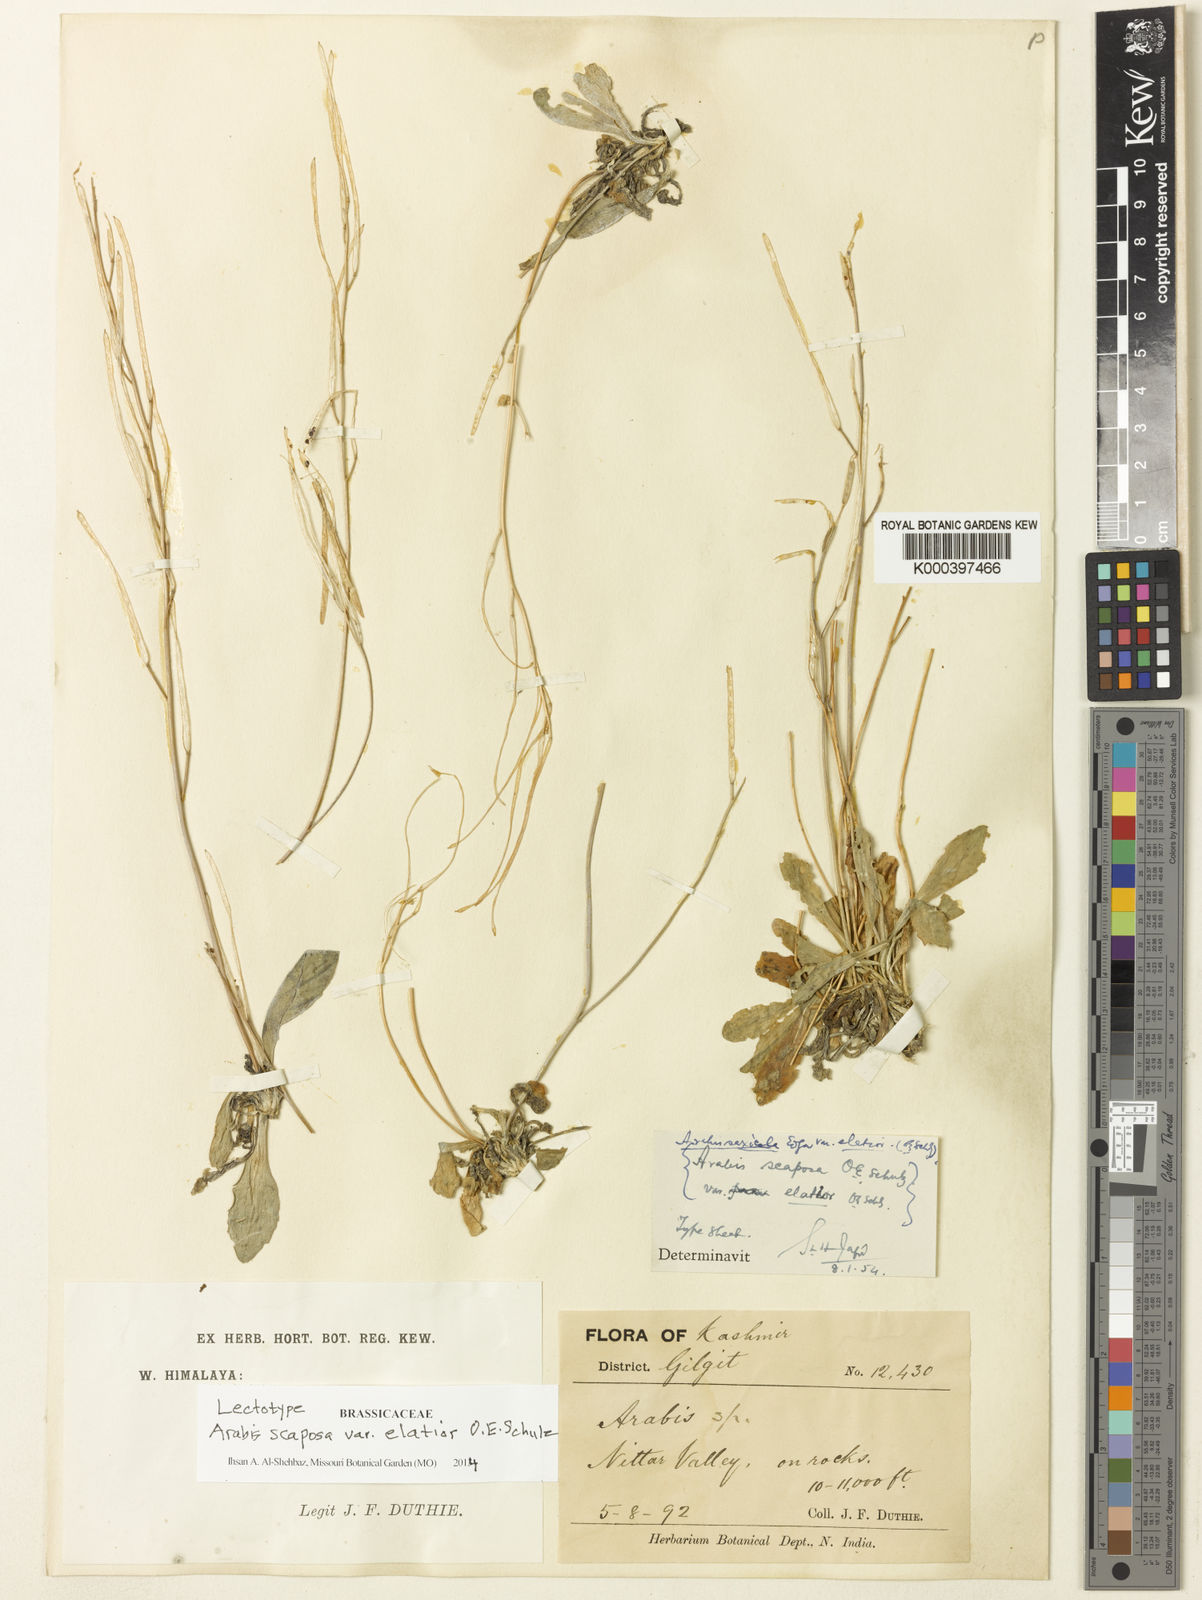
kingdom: Plantae
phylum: Tracheophyta
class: Magnoliopsida
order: Brassicales
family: Brassicaceae
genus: Scapiarabis
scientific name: Scapiarabis saxicola
